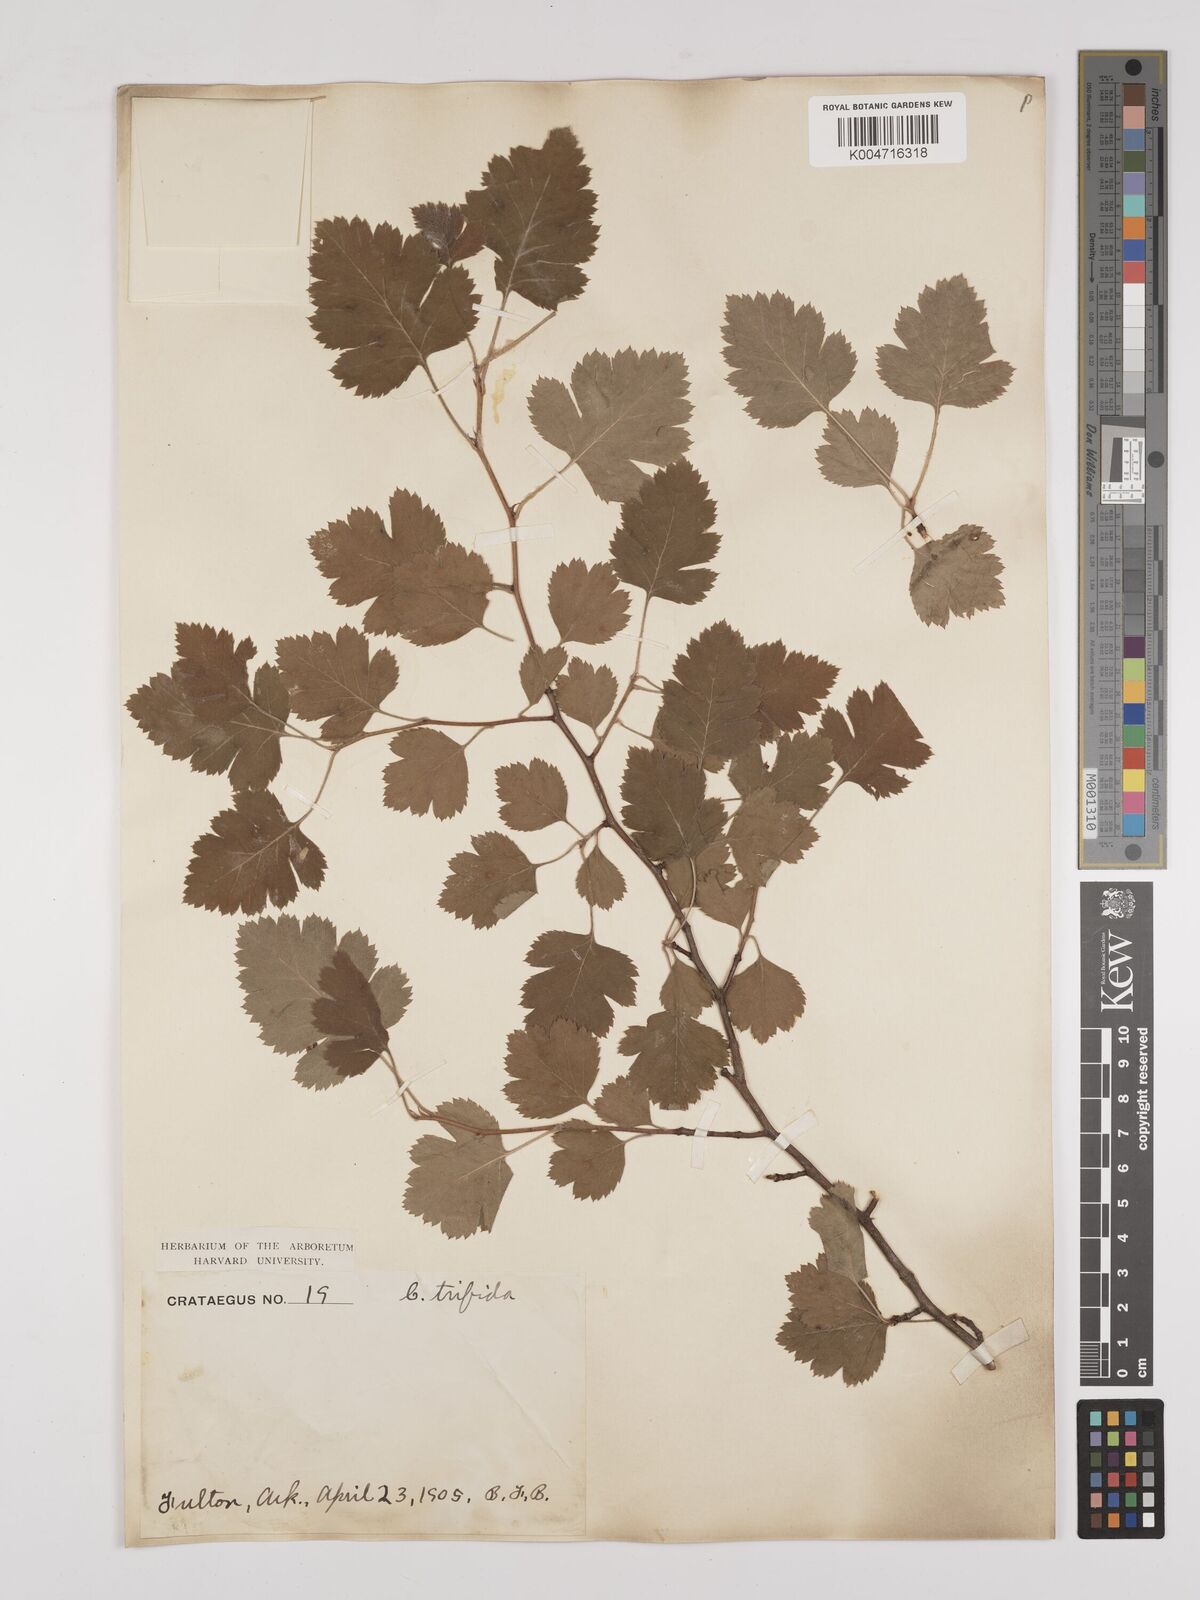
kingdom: Plantae
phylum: Tracheophyta
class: Magnoliopsida
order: Rosales
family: Rosaceae
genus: Crataegus
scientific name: Crataegus
